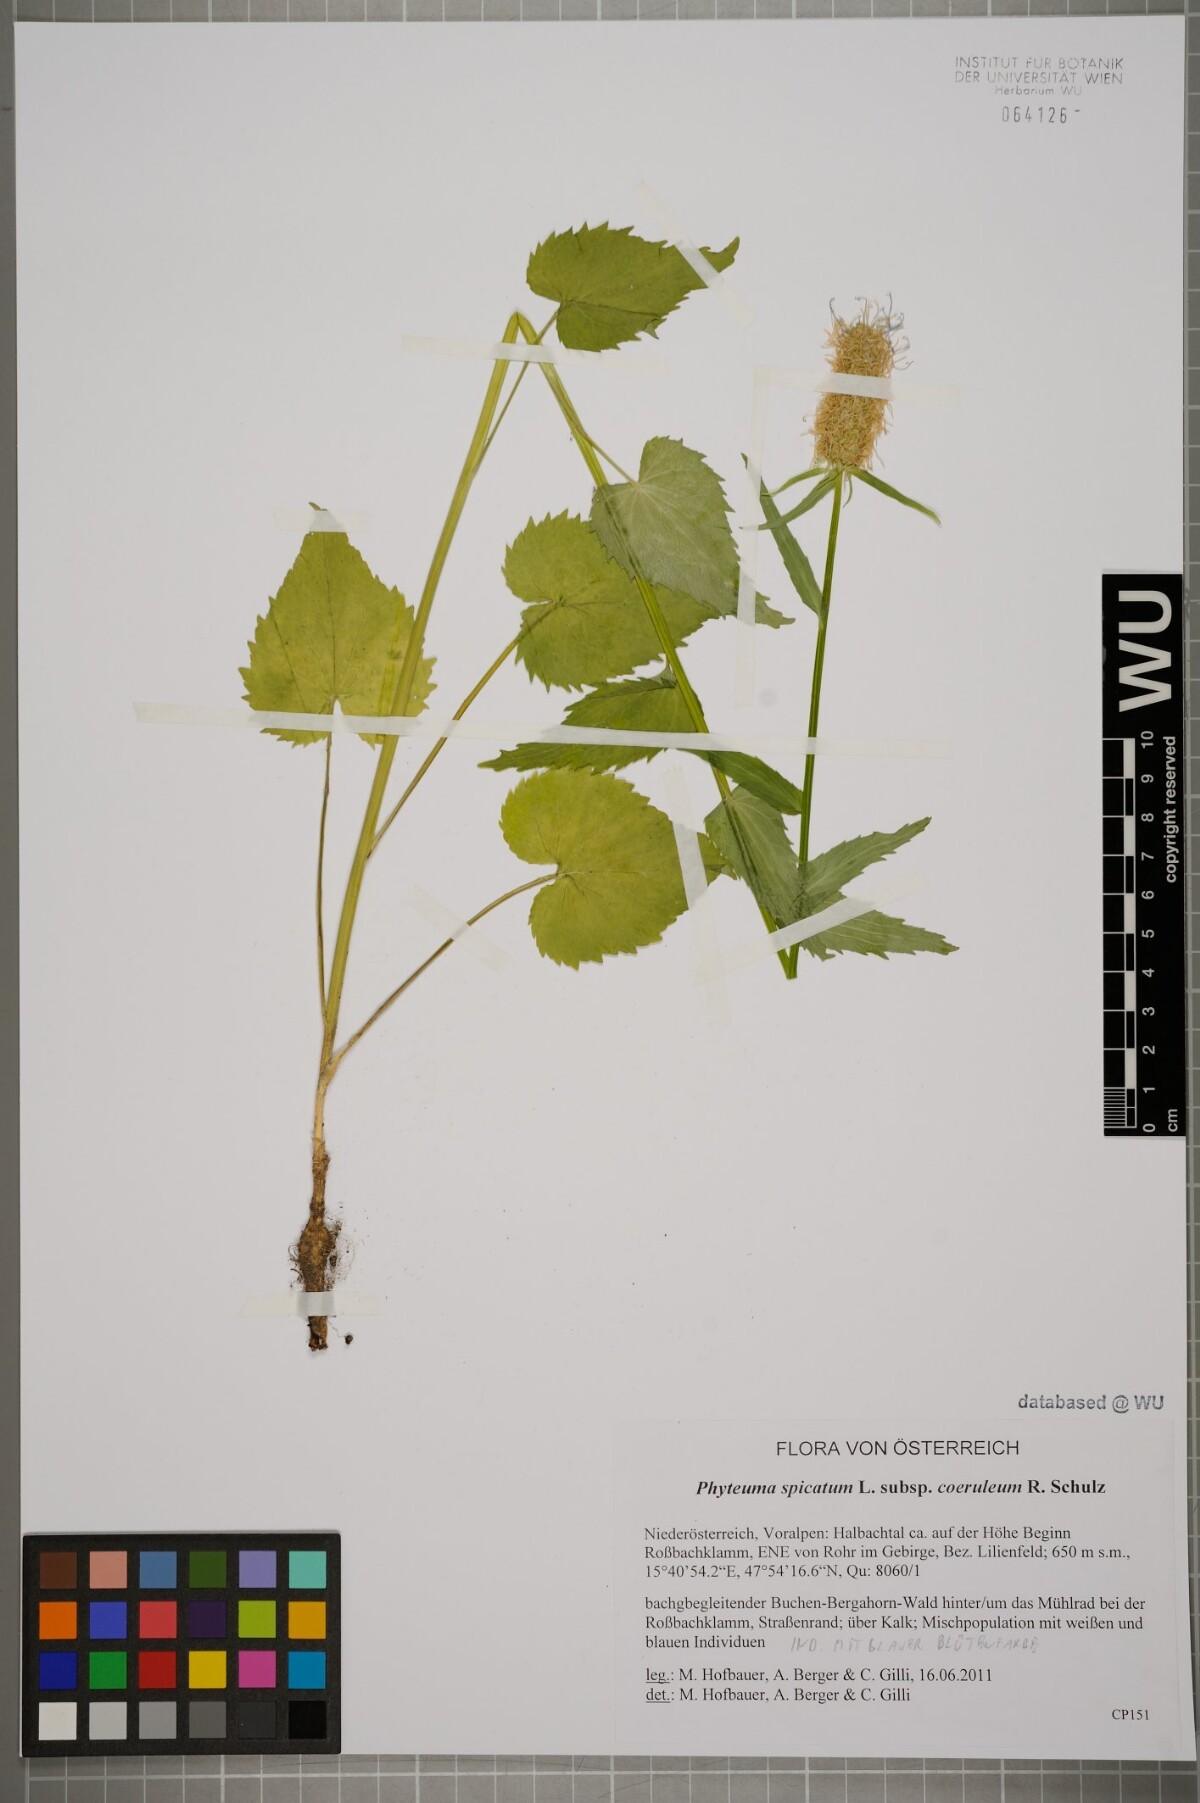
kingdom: Plantae
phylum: Tracheophyta
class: Magnoliopsida
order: Asterales
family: Campanulaceae
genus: Phyteuma
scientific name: Phyteuma spicatum
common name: Spiked rampion
